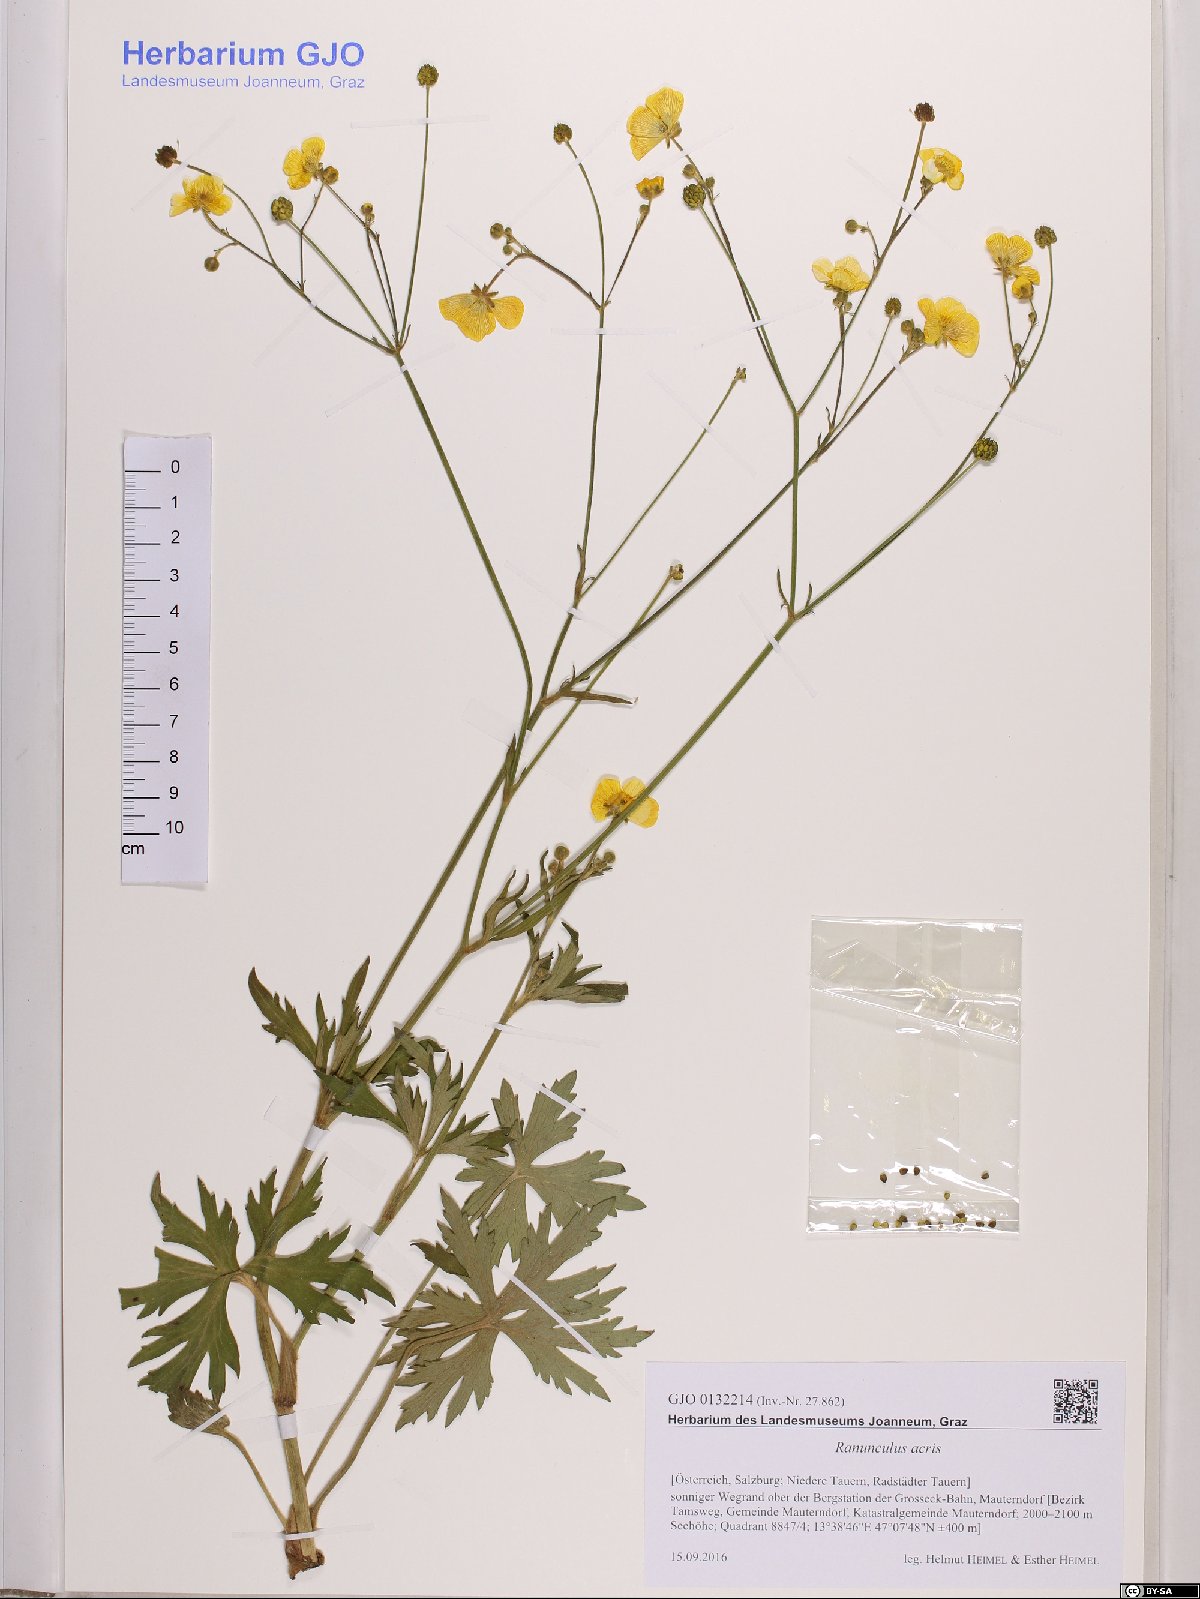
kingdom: Plantae
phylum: Tracheophyta
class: Magnoliopsida
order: Ranunculales
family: Ranunculaceae
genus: Ranunculus
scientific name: Ranunculus acris
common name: Meadow buttercup
